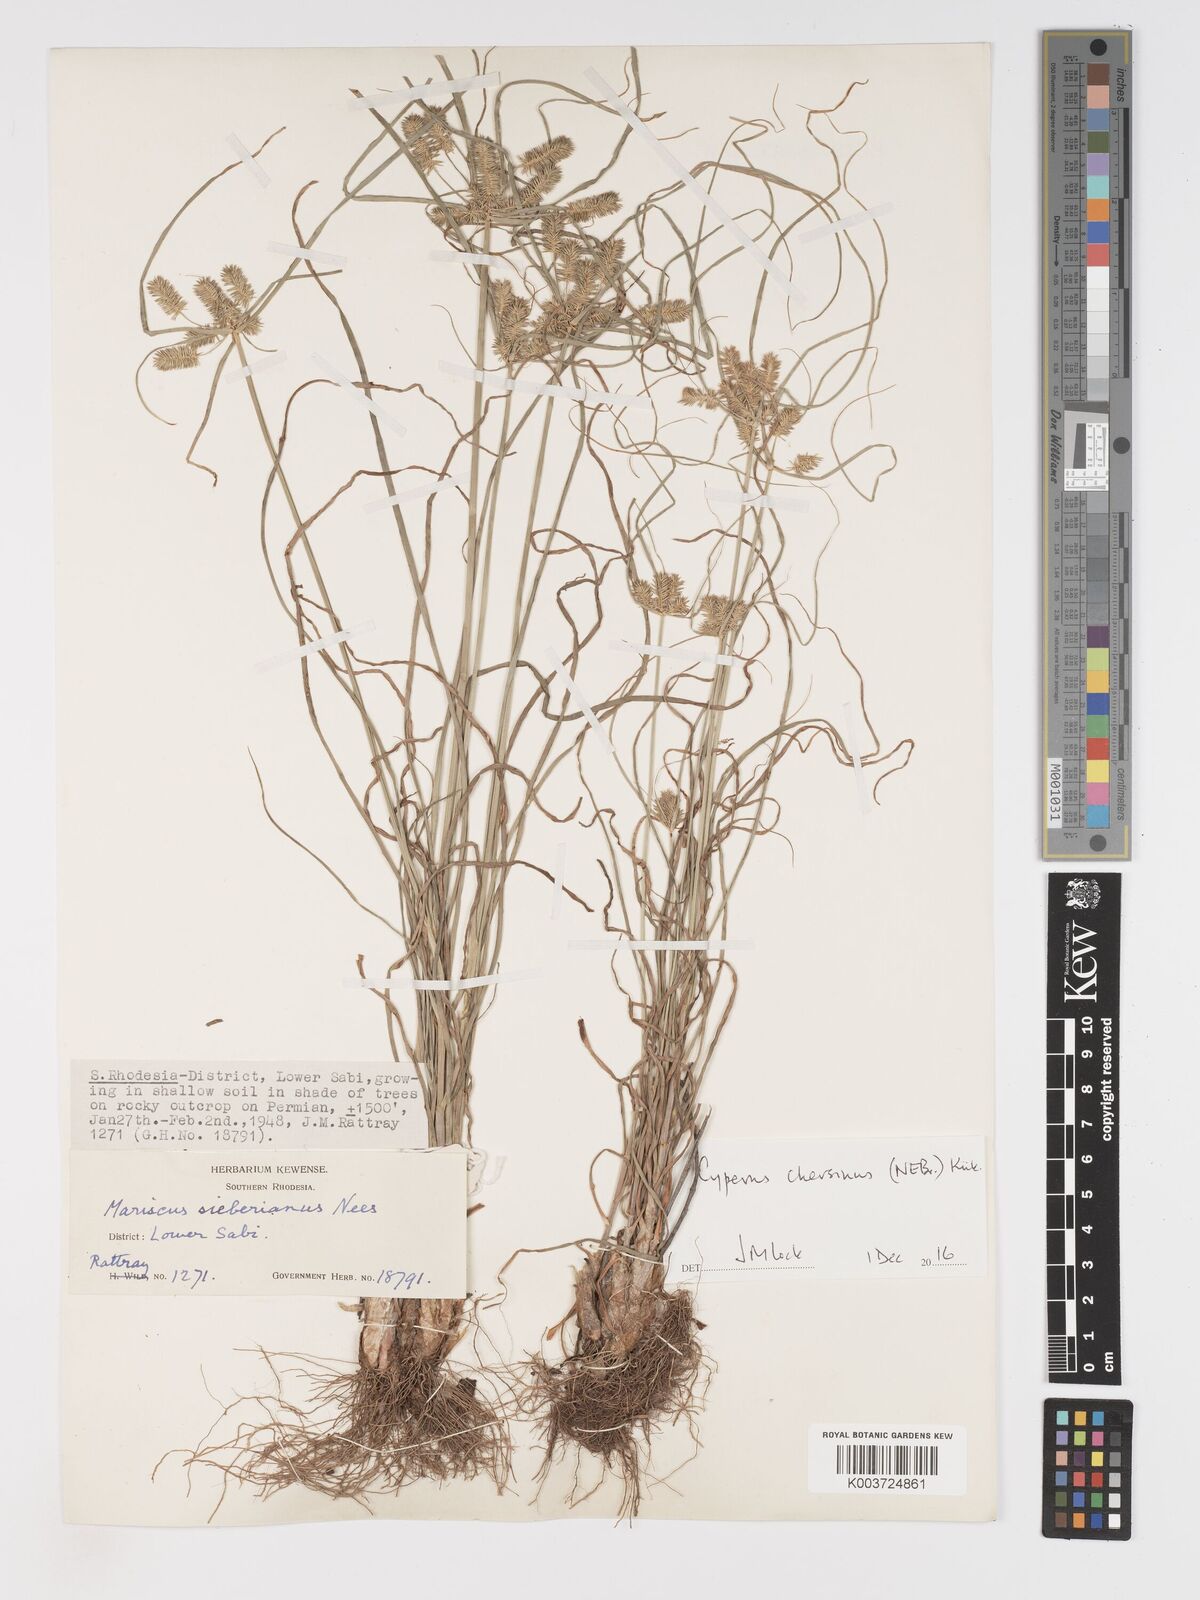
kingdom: Plantae
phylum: Tracheophyta
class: Liliopsida
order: Poales
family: Cyperaceae
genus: Cyperus
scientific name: Cyperus chersinus
